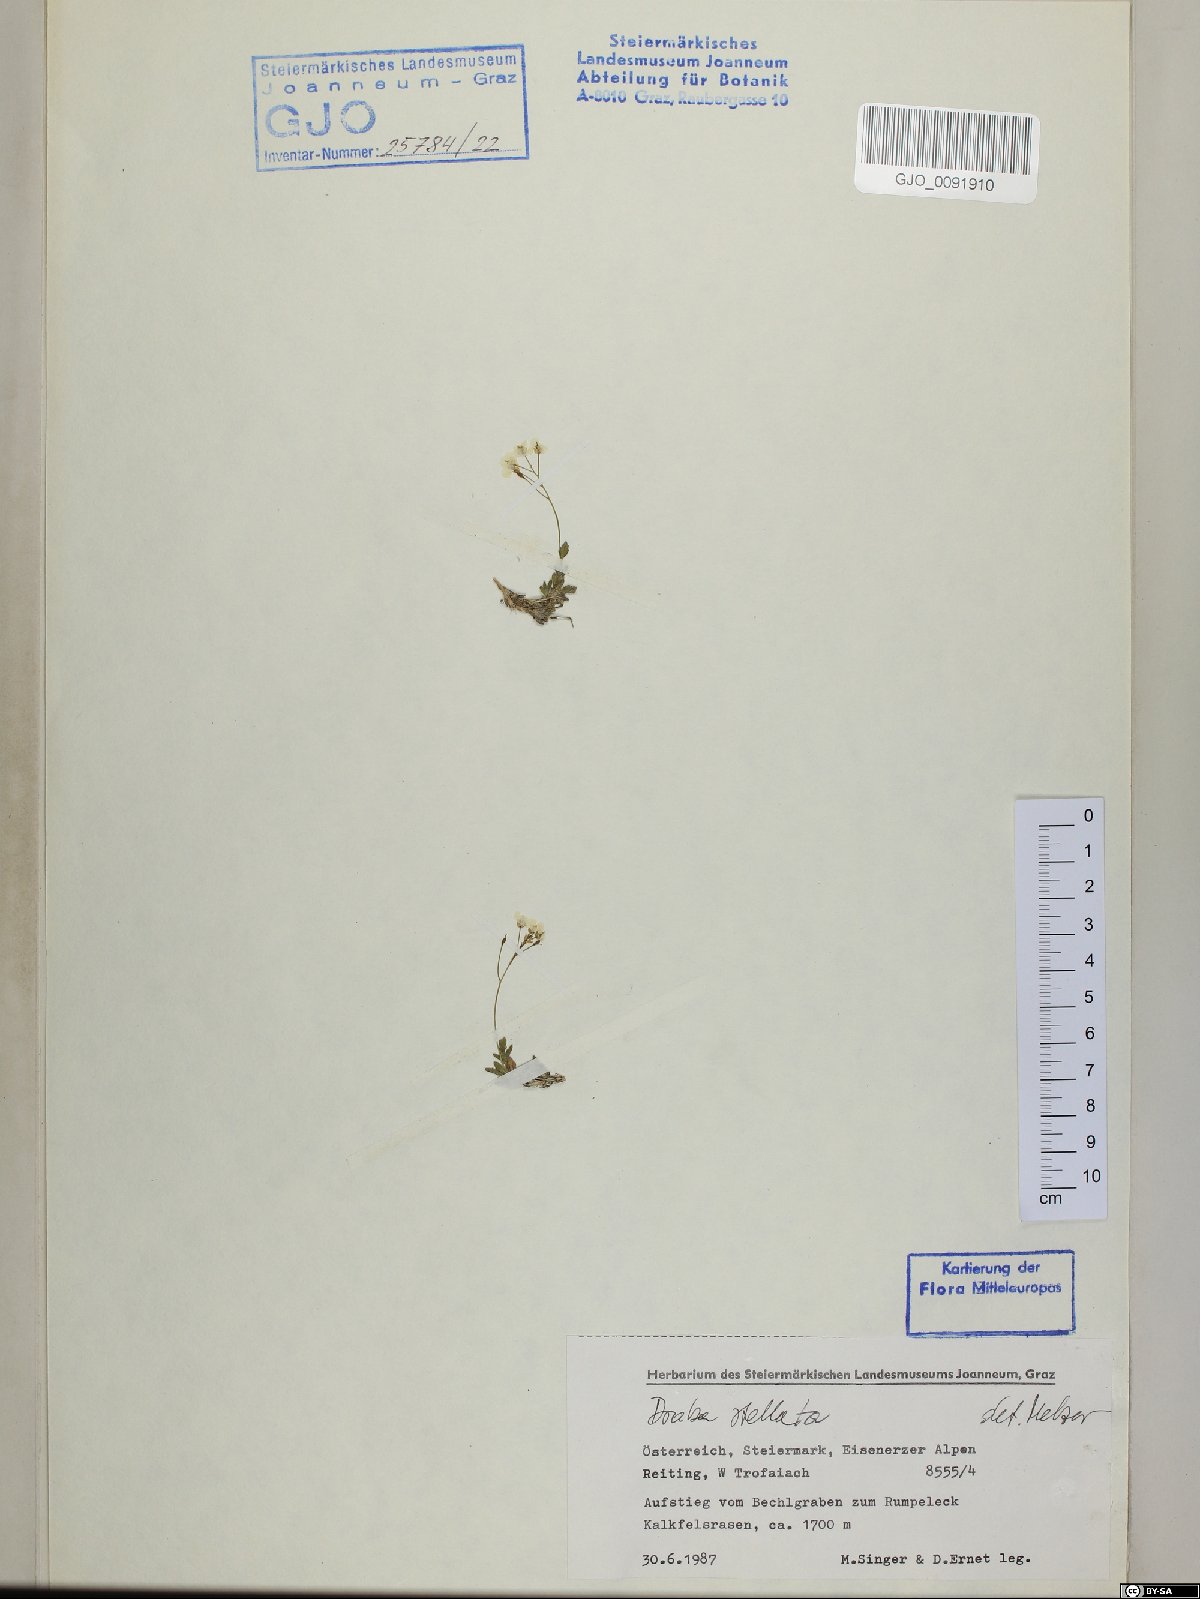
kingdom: Plantae
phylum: Tracheophyta
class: Magnoliopsida
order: Brassicales
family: Brassicaceae
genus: Draba
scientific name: Draba stellata
